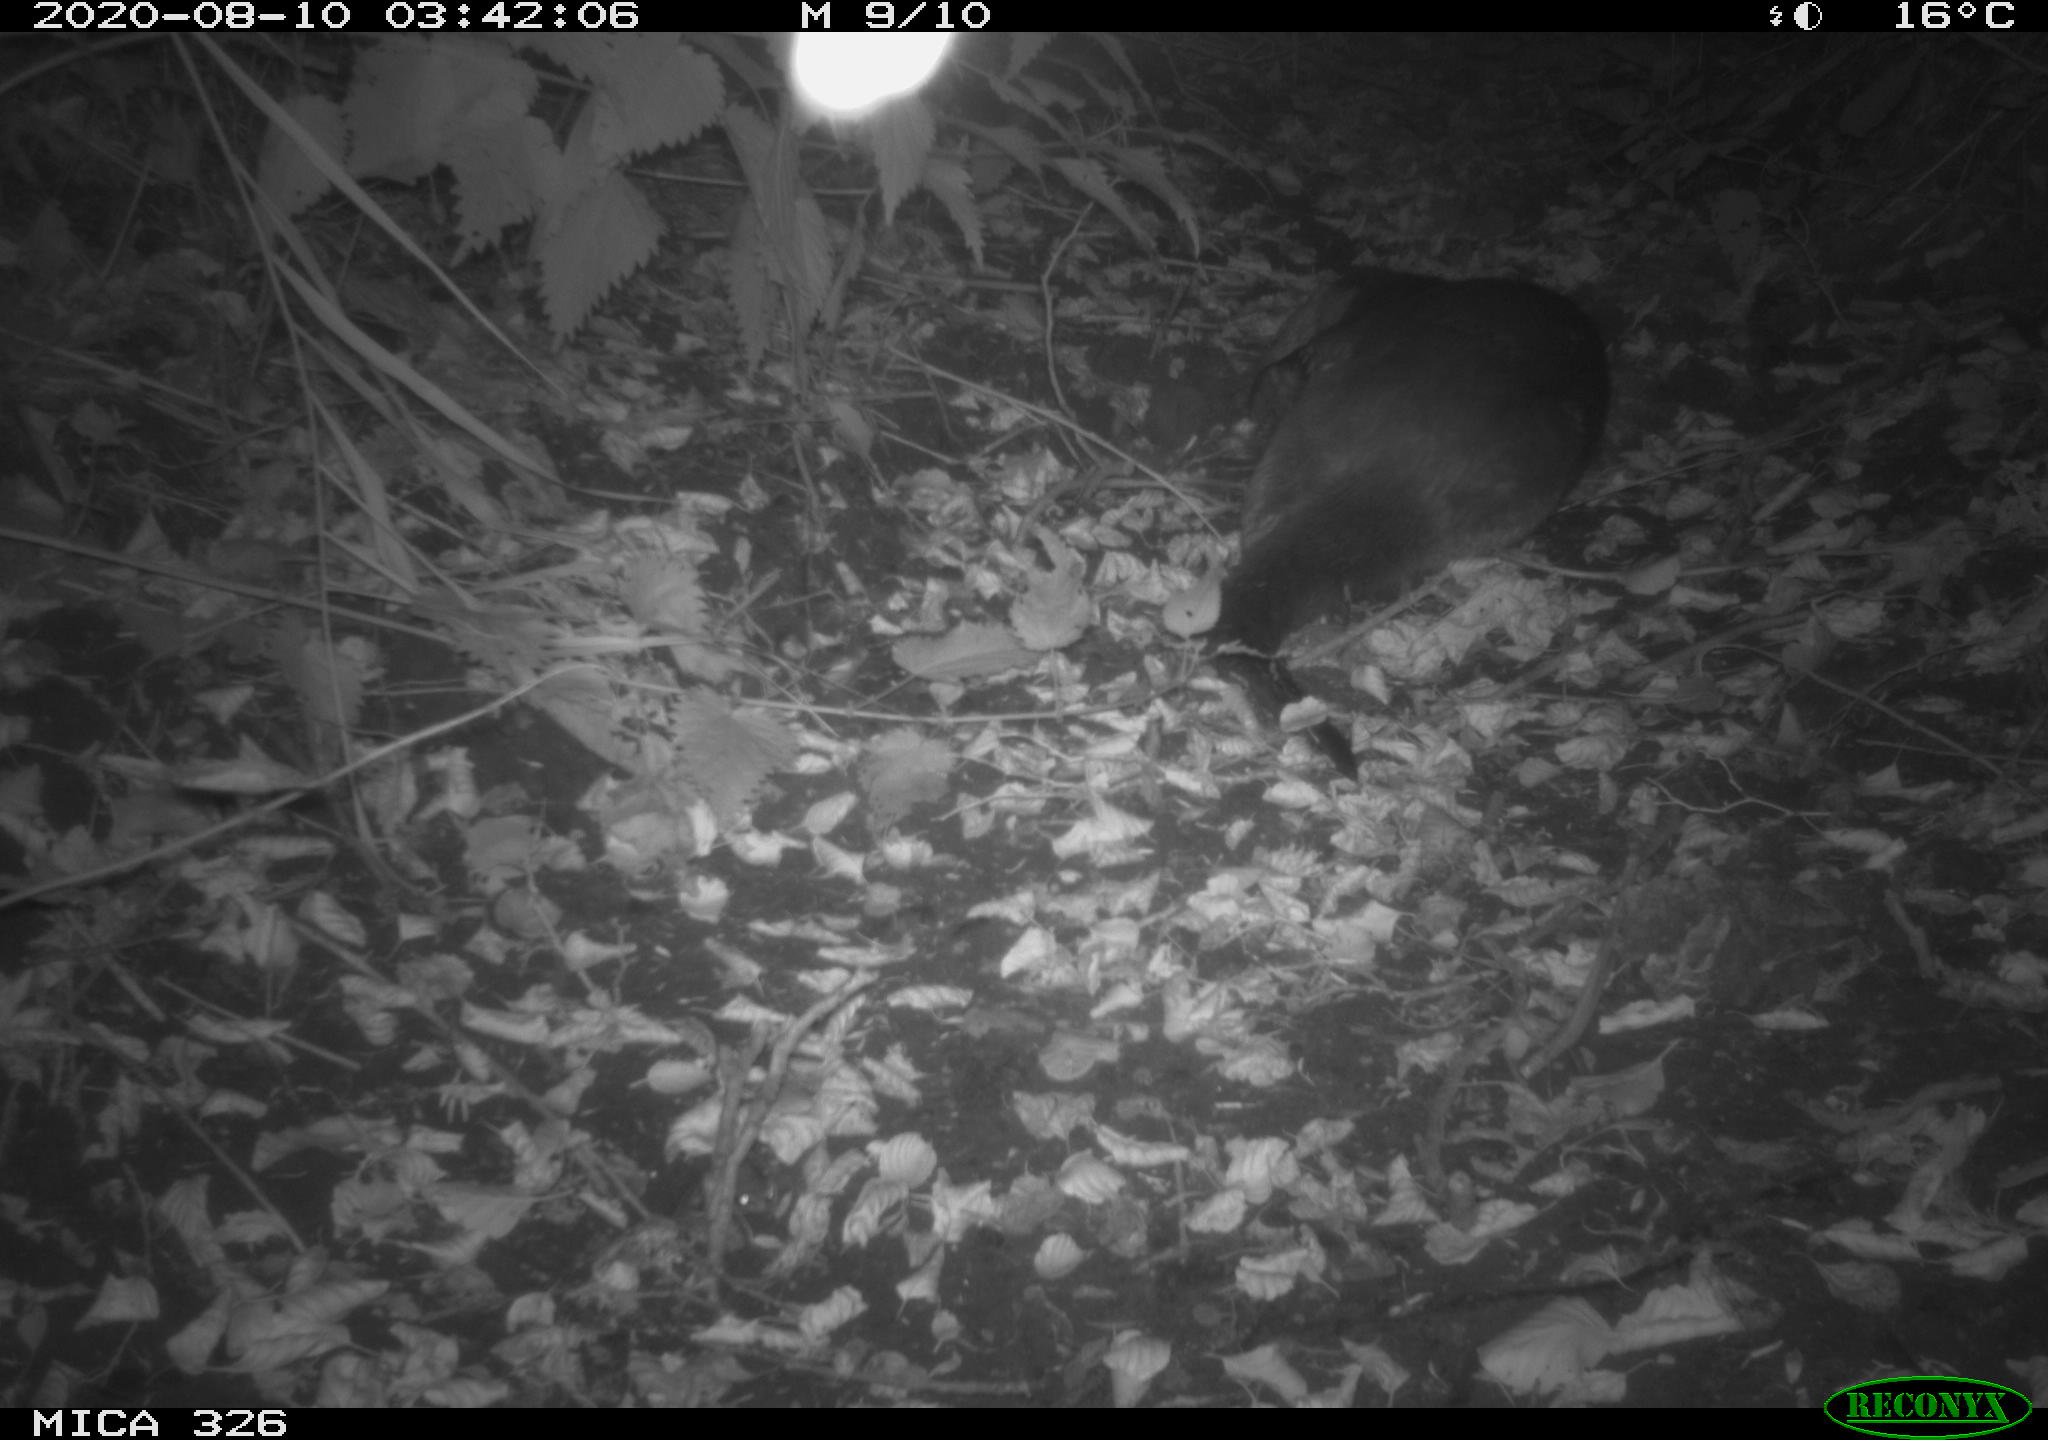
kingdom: Animalia
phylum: Chordata
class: Mammalia
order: Carnivora
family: Mustelidae
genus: Lutra
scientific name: Lutra lutra
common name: European otter
